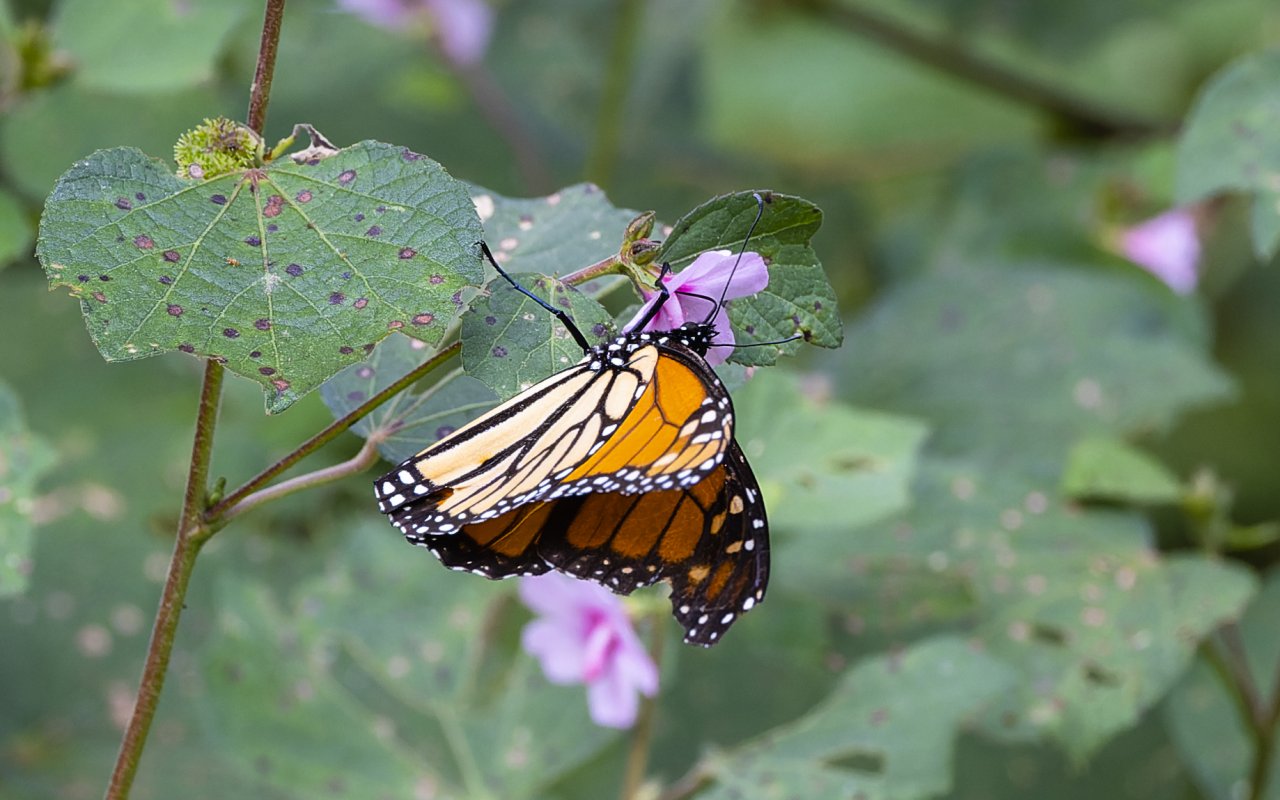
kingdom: Animalia
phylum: Arthropoda
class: Insecta
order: Lepidoptera
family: Nymphalidae
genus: Danaus
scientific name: Danaus plexippus
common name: Monarch
